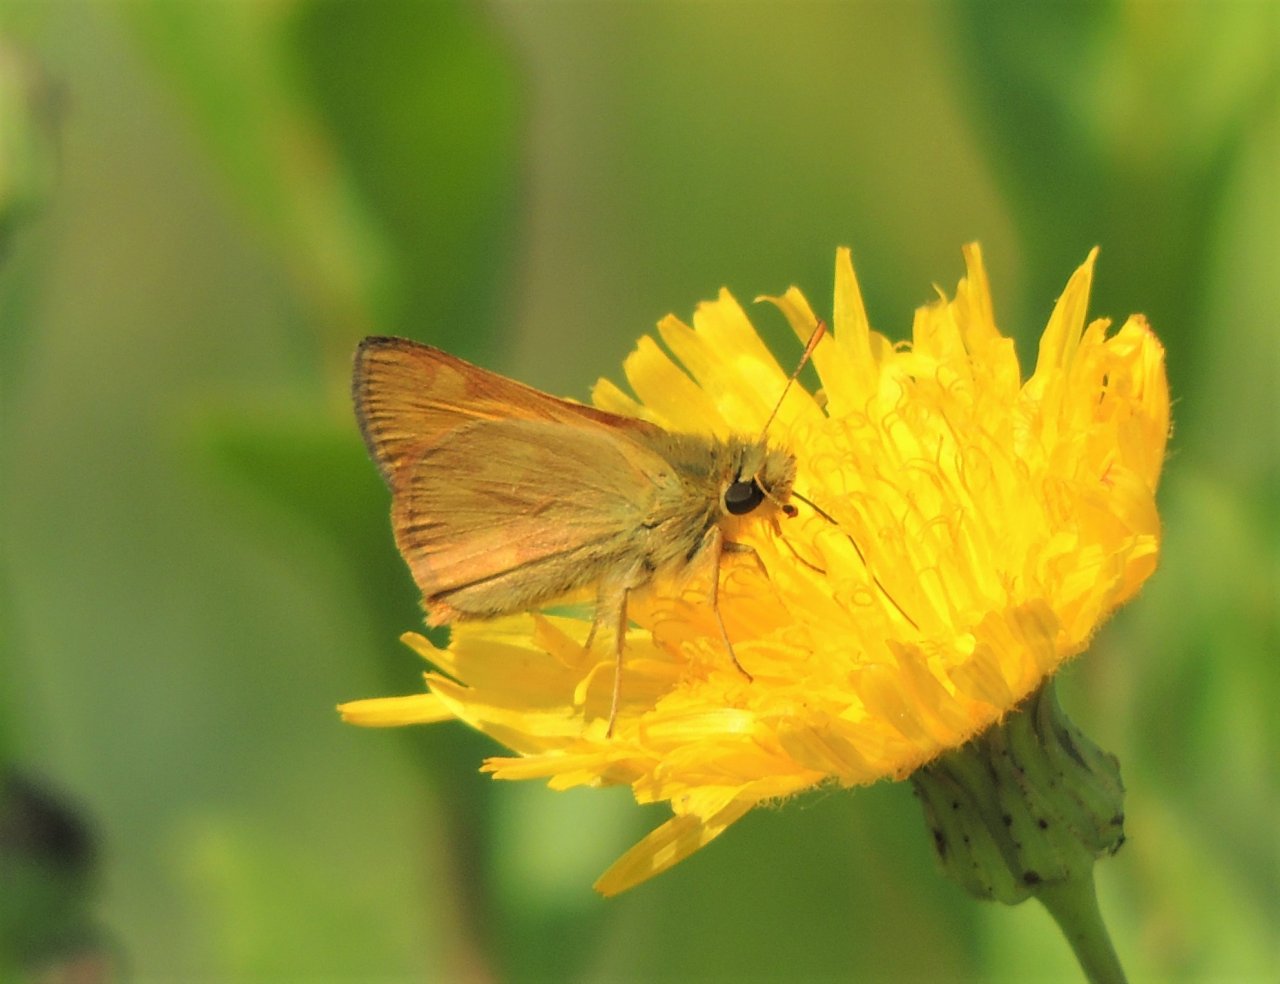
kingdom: Animalia
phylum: Arthropoda
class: Insecta
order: Lepidoptera
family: Hesperiidae
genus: Ochlodes
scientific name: Ochlodes sylvanoides
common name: Woodland Skipper
